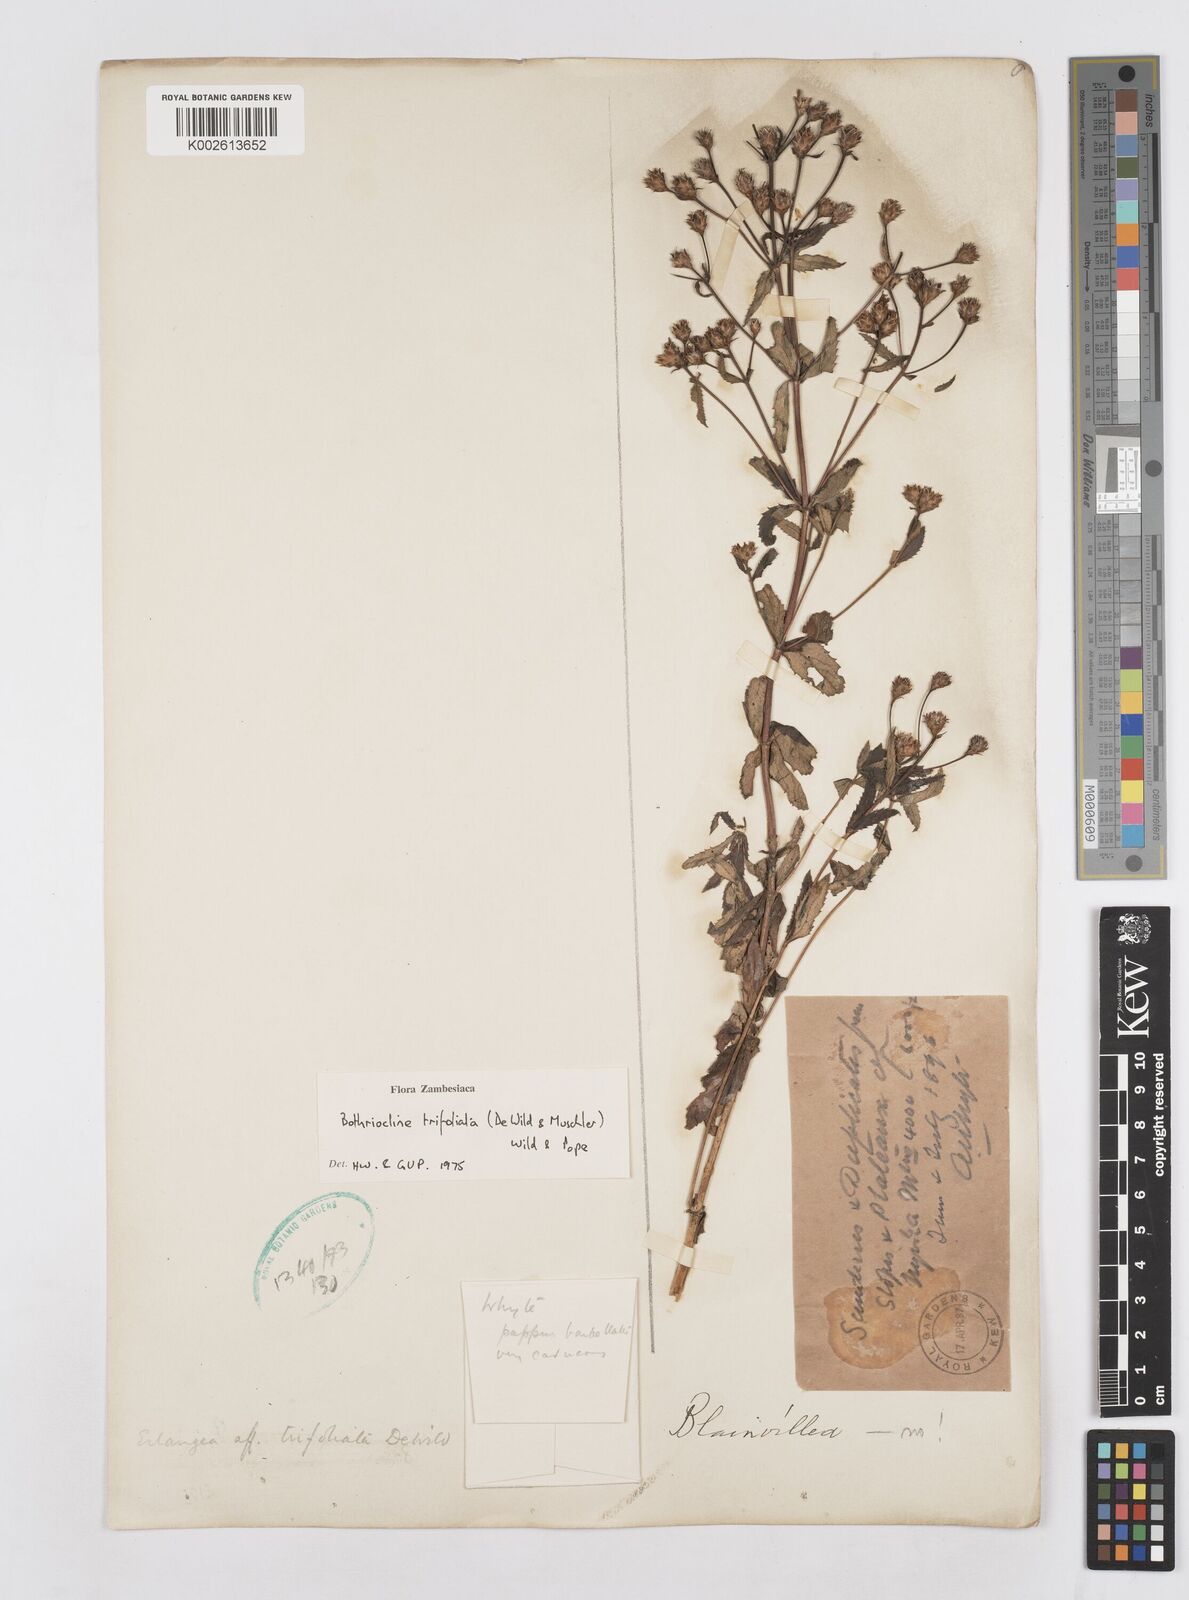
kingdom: Plantae
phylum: Tracheophyta
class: Magnoliopsida
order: Asterales
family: Asteraceae
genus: Bothriocline
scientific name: Bothriocline trifoliata
